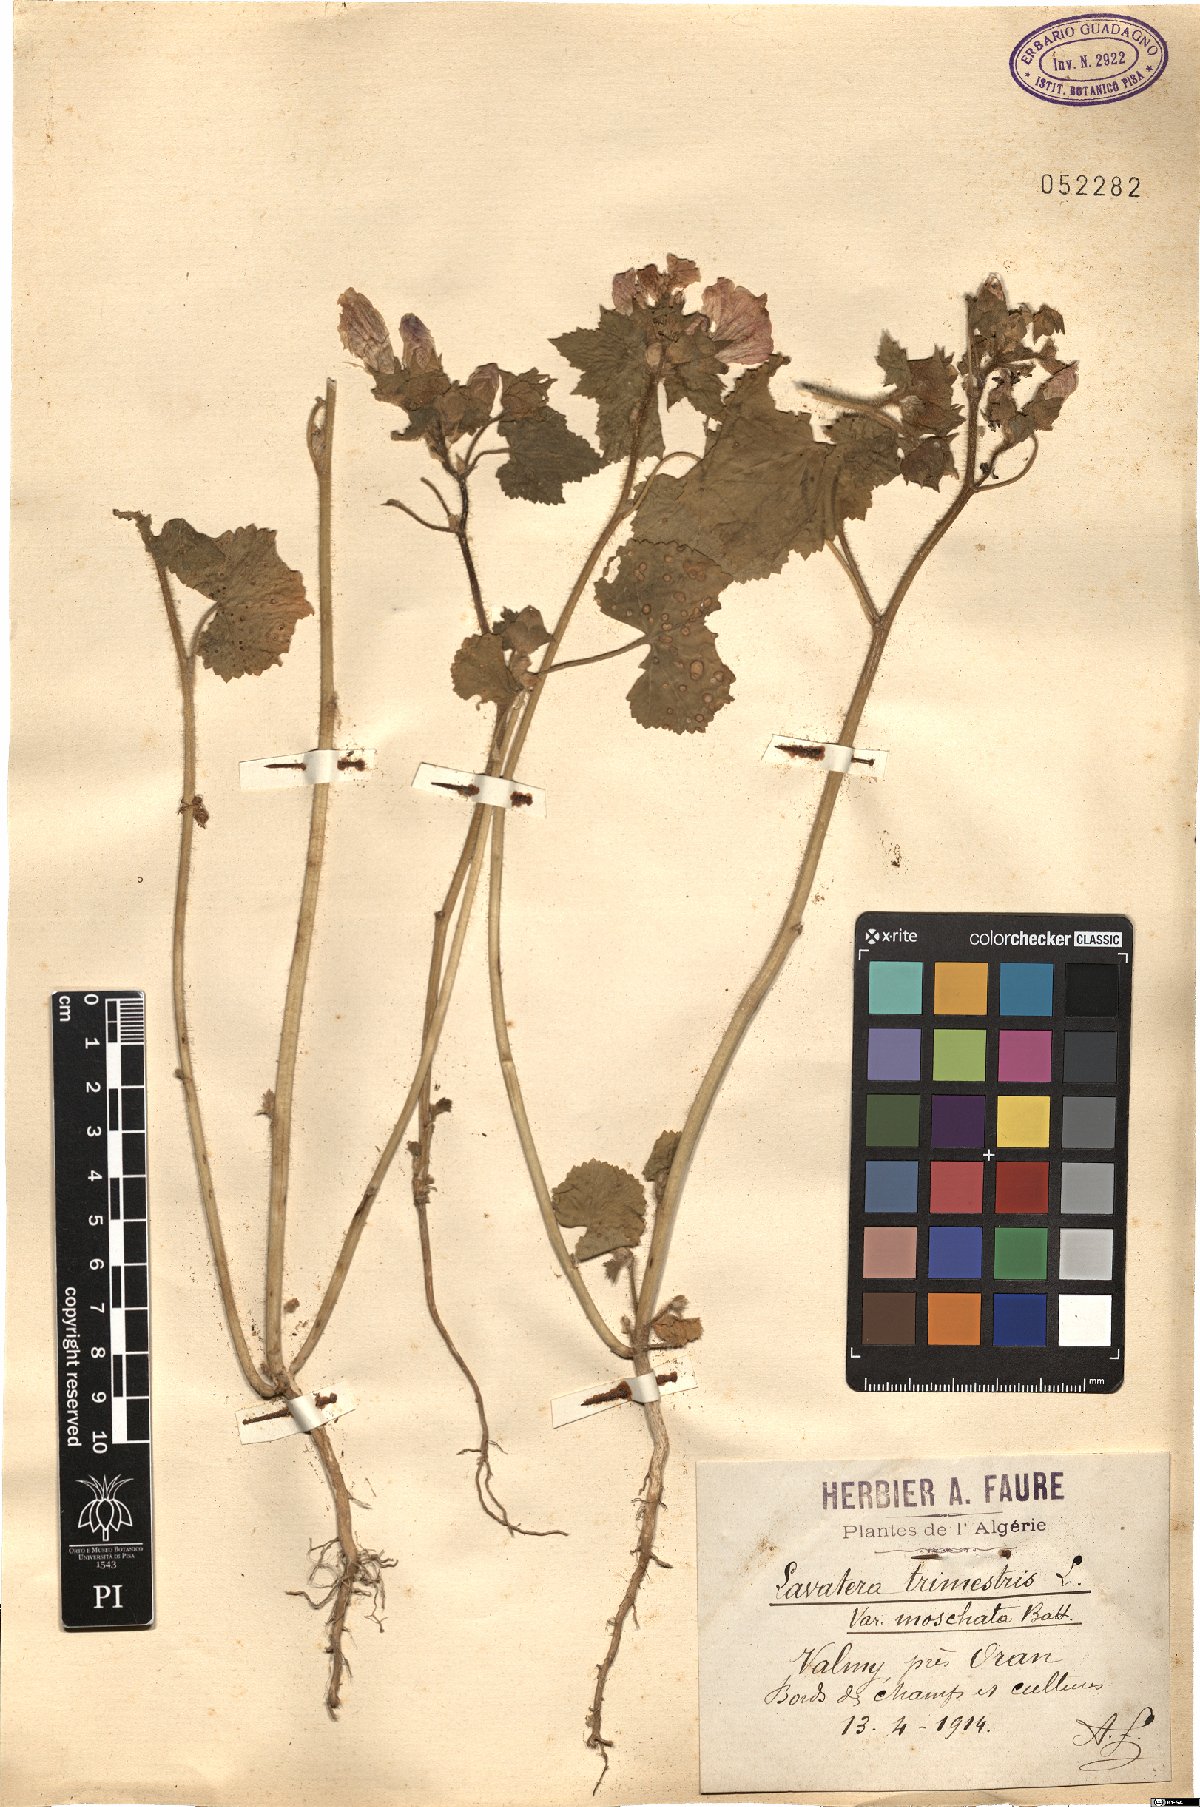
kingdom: Plantae
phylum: Tracheophyta
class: Magnoliopsida
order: Malvales
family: Malvaceae
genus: Malva
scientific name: Malva trimestris
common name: Royal mallow
